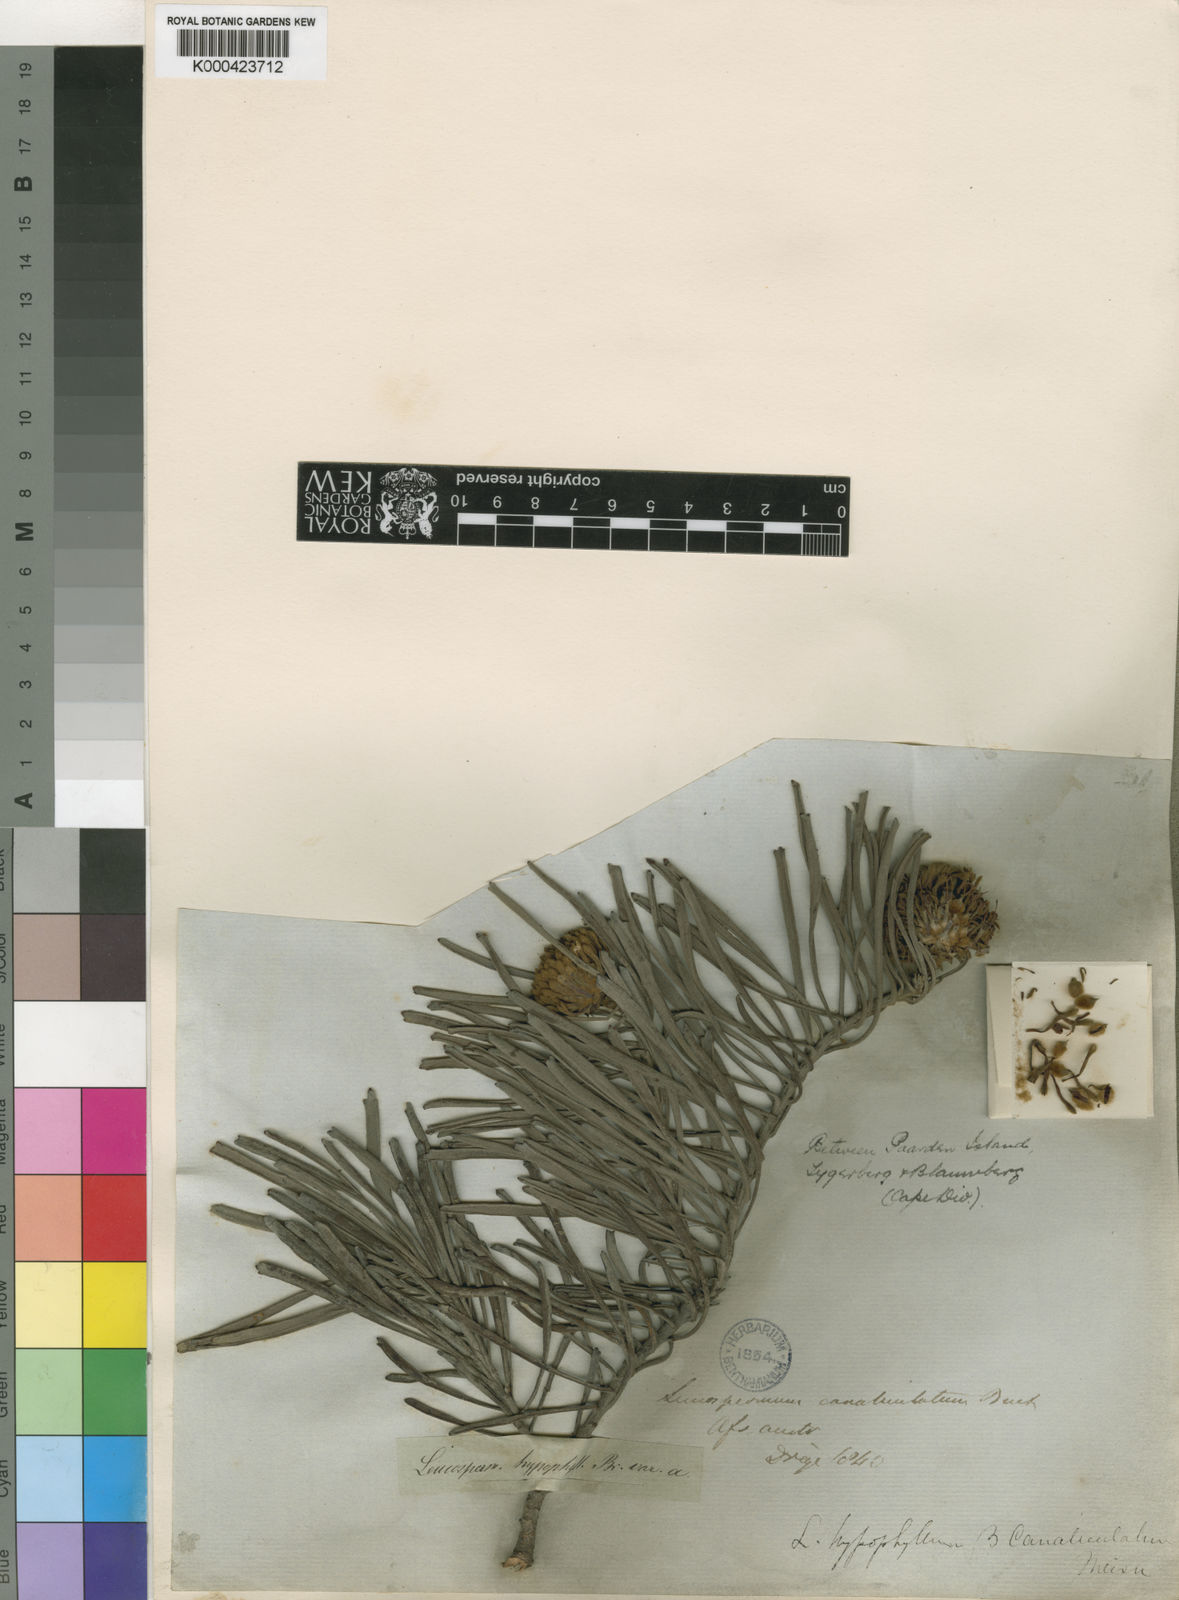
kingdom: Plantae
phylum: Tracheophyta
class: Magnoliopsida
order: Proteales
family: Proteaceae
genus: Leucospermum
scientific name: Leucospermum hypophyllocarpodendron
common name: Snakestem pincushion
